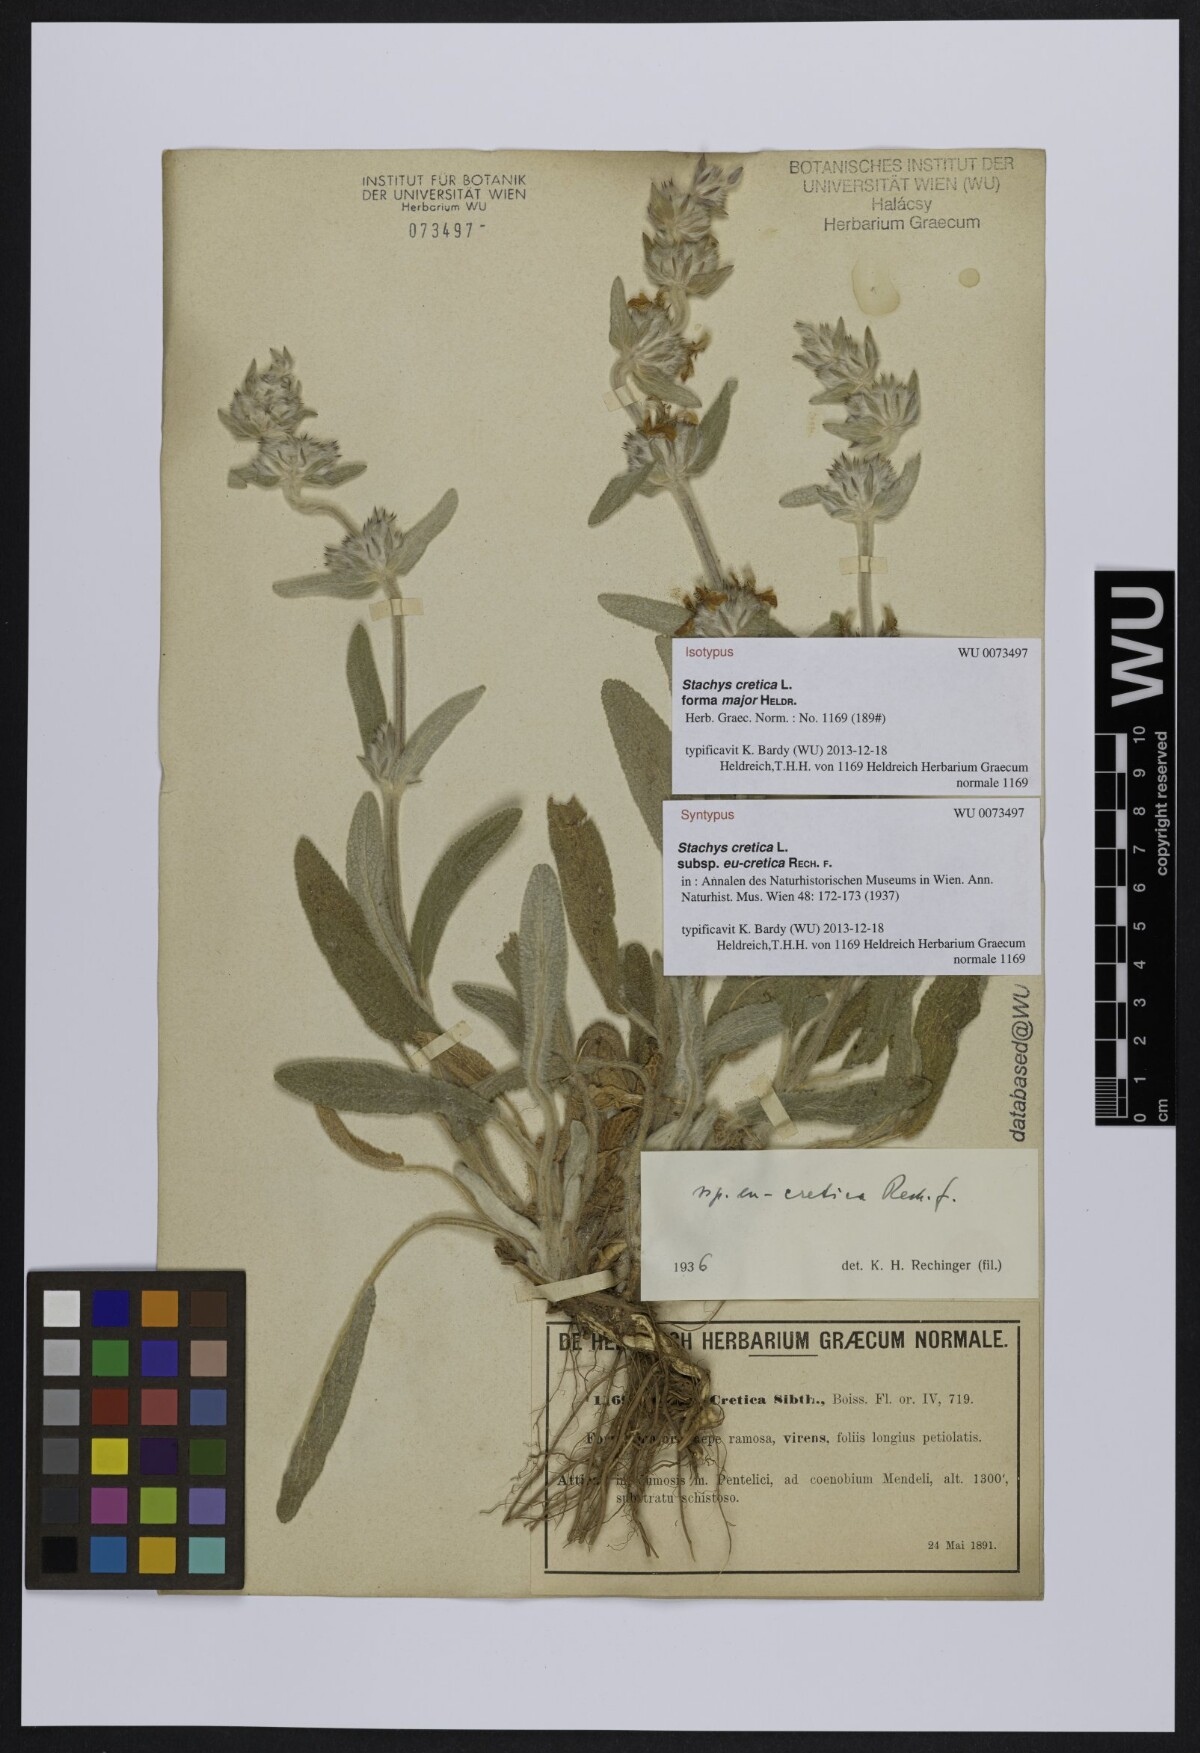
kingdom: Plantae
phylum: Tracheophyta
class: Magnoliopsida
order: Lamiales
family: Lamiaceae
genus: Stachys
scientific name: Stachys cretica
